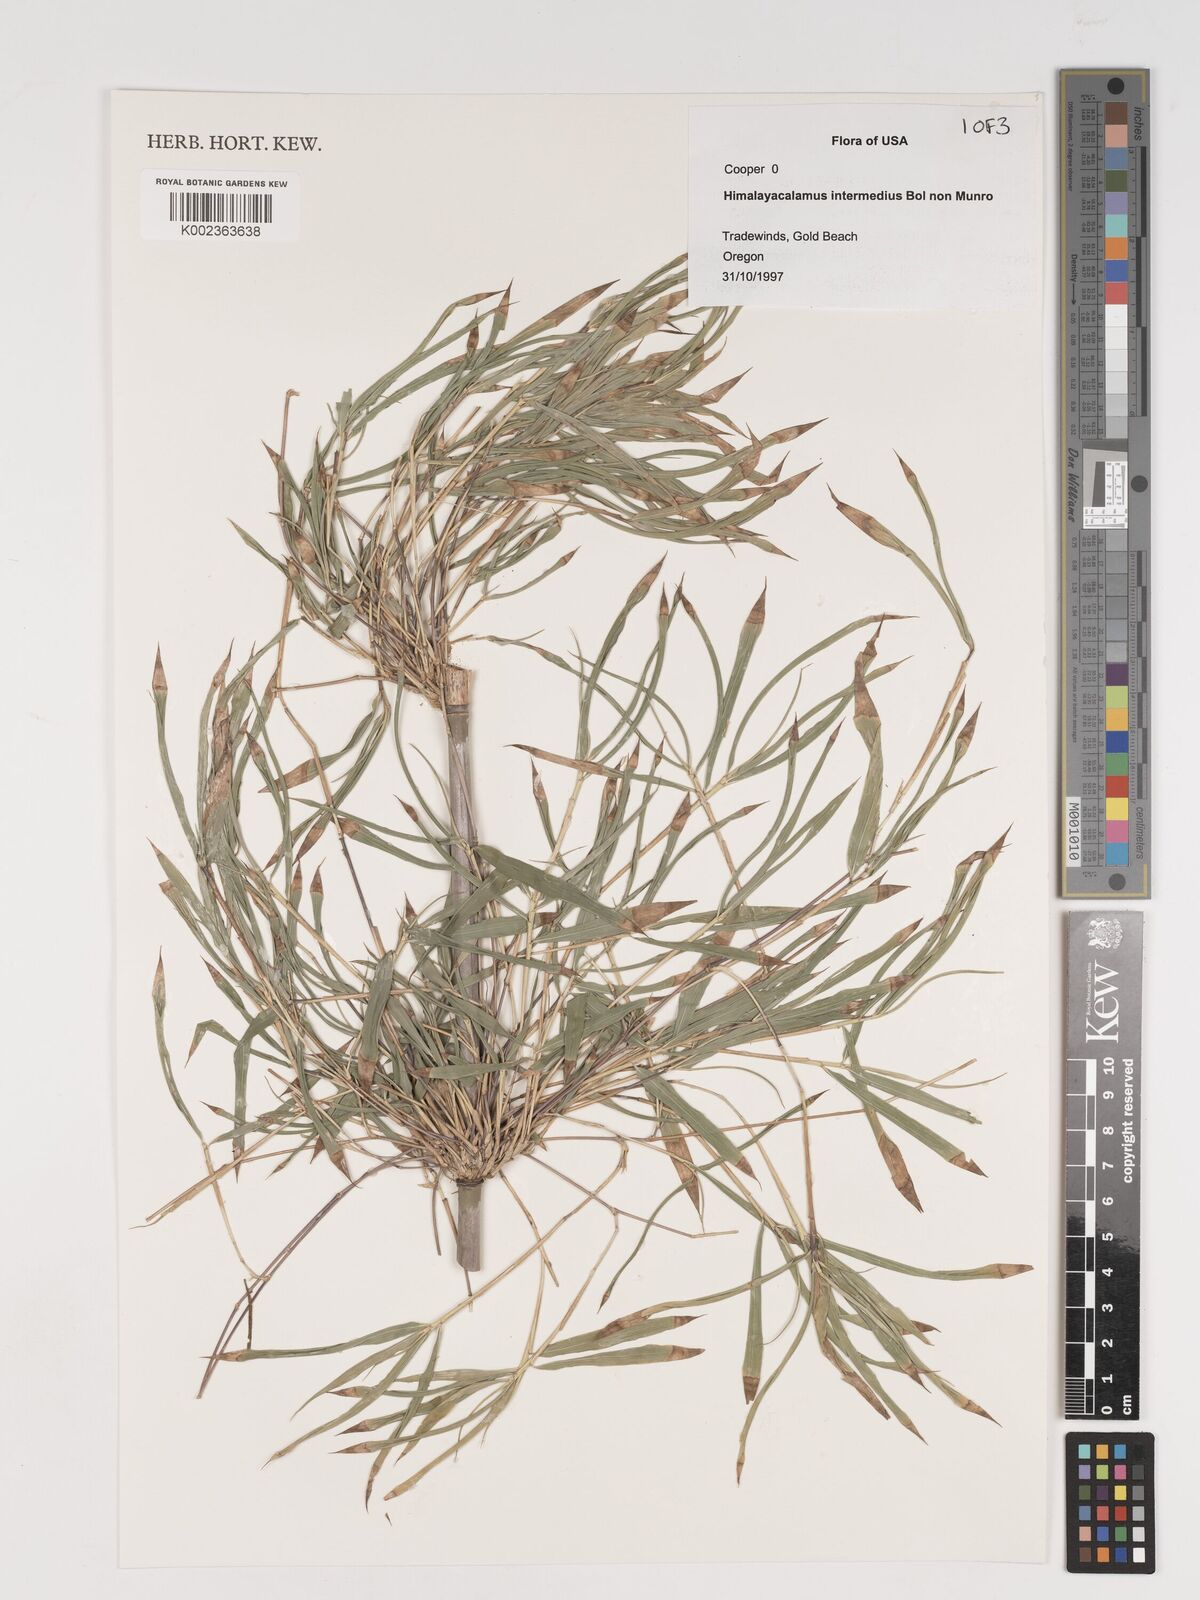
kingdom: Plantae
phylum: Tracheophyta
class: Liliopsida
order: Poales
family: Poaceae
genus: Himalayacalamus
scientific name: Himalayacalamus
